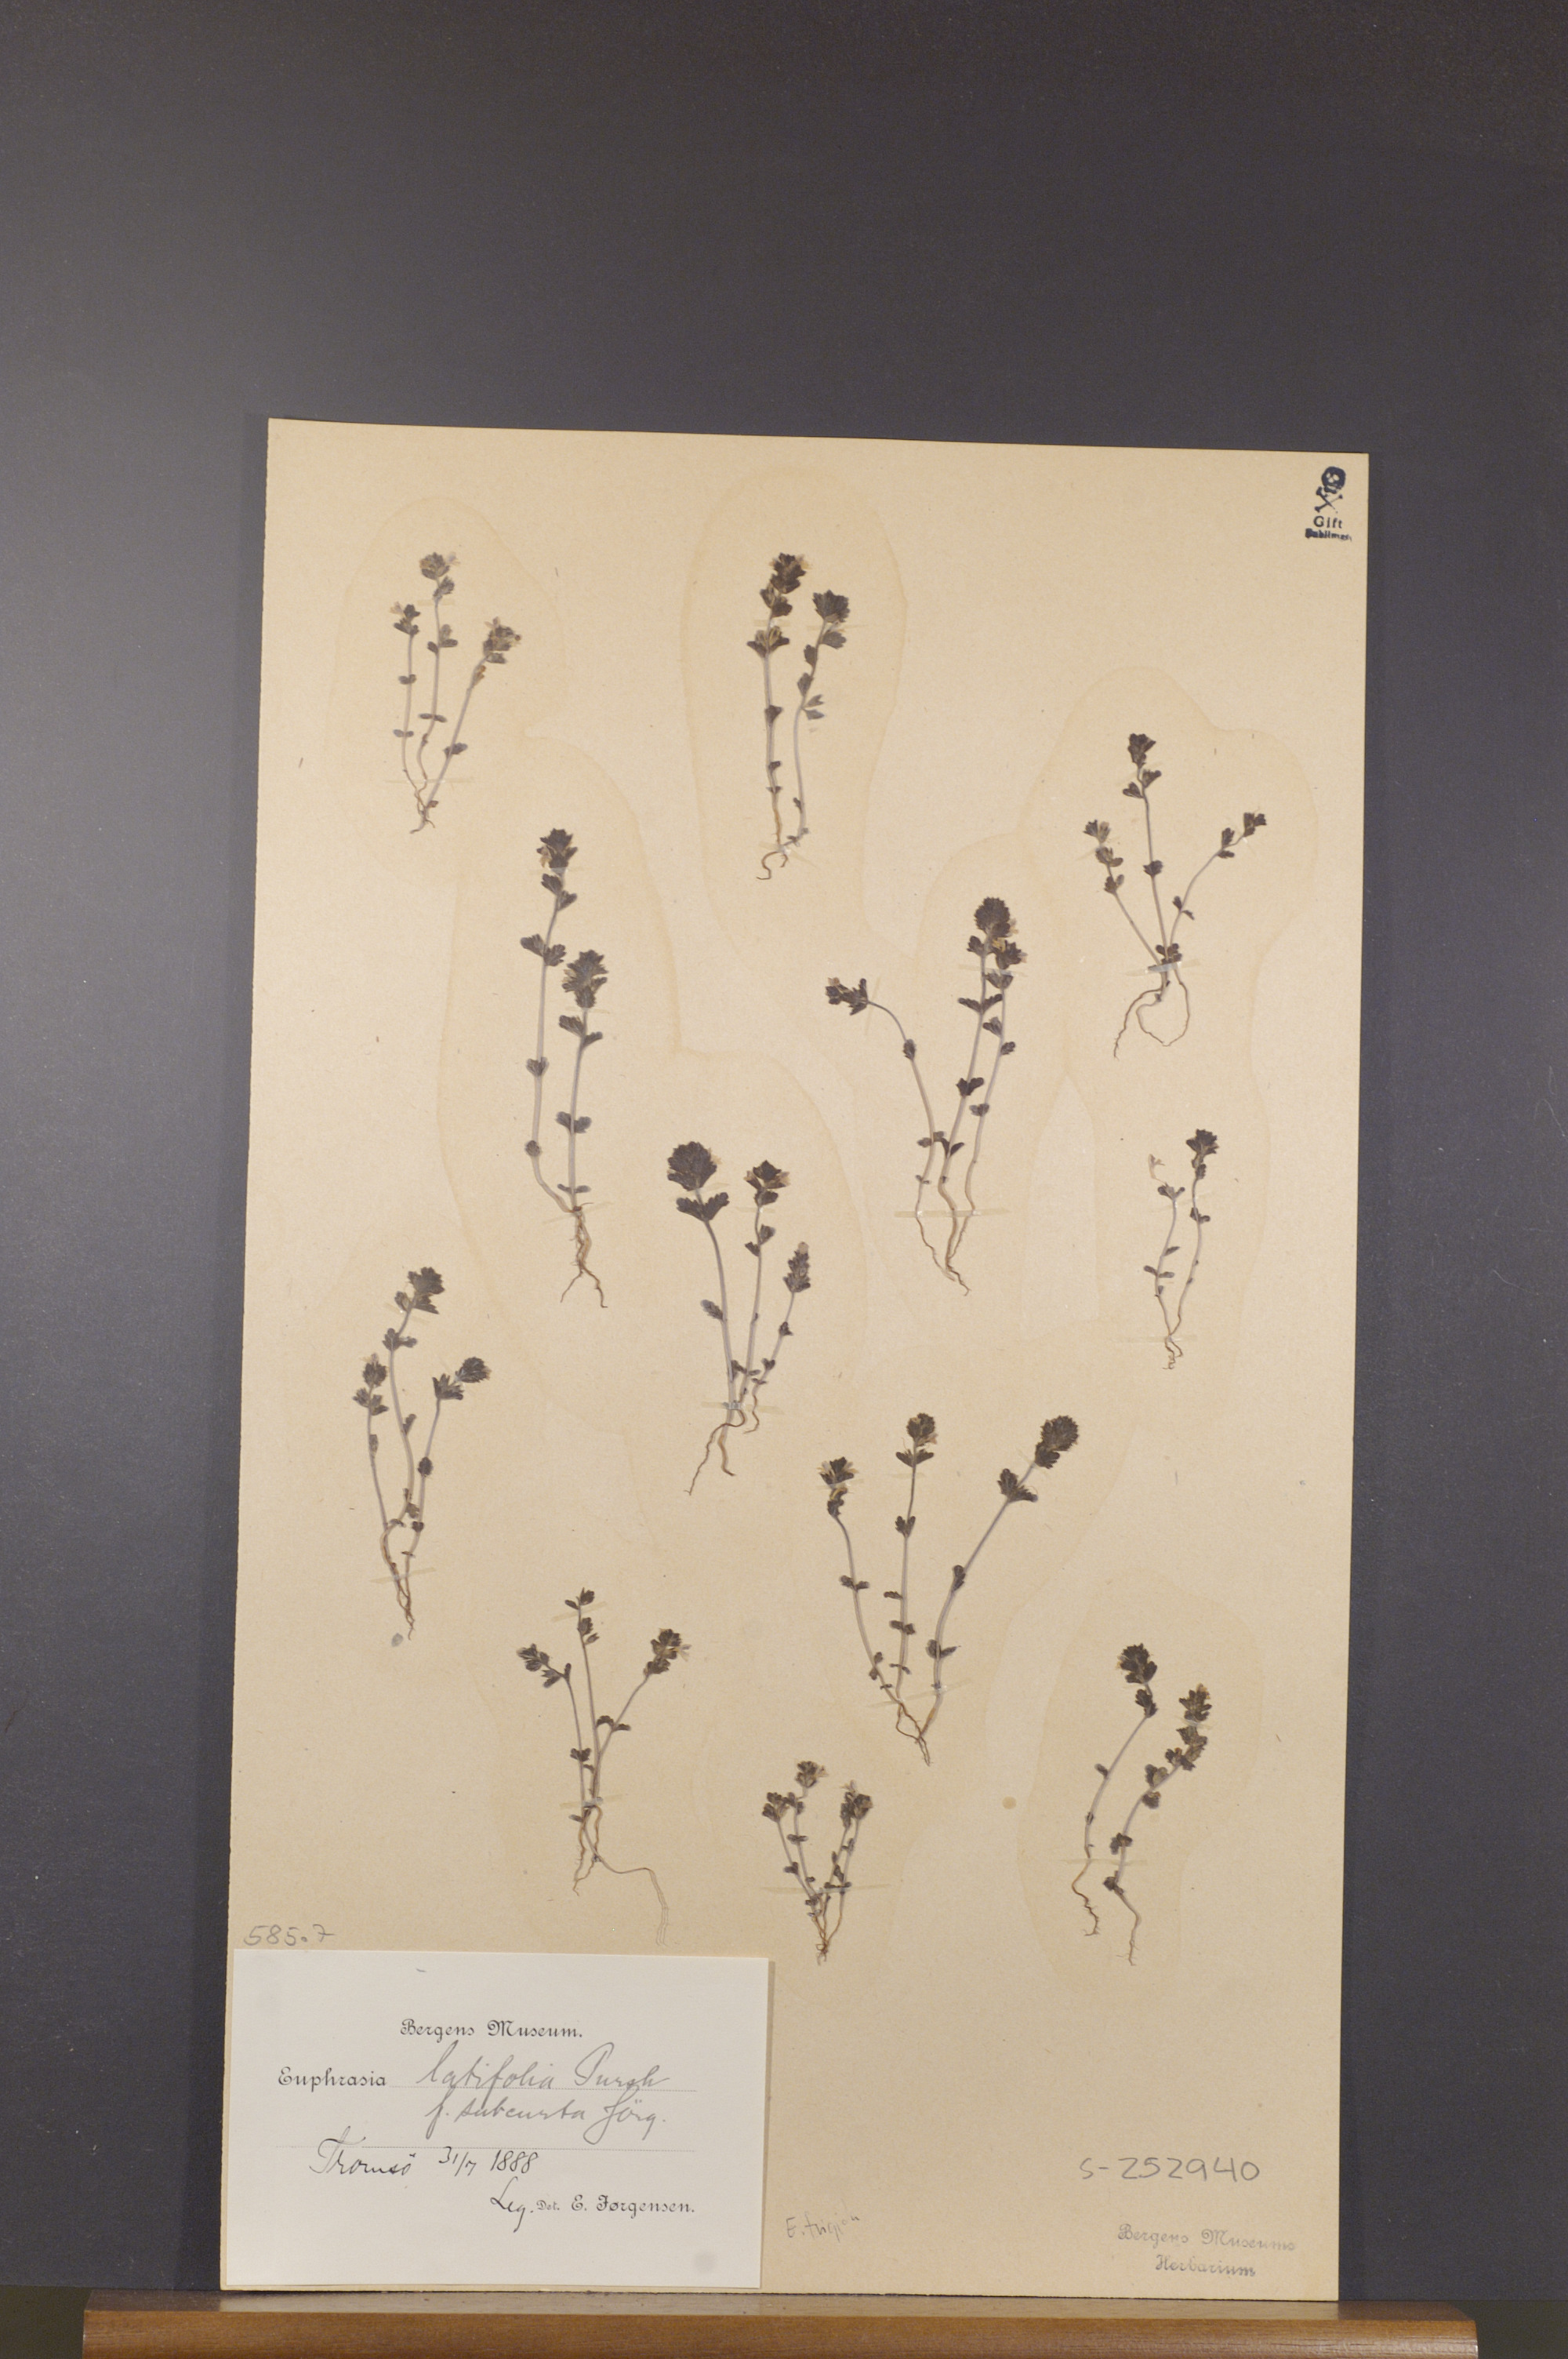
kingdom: Plantae
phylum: Tracheophyta
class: Magnoliopsida
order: Lamiales
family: Orobanchaceae
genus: Euphrasia
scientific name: Euphrasia wettsteinii
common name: Wettstein's eyebright
